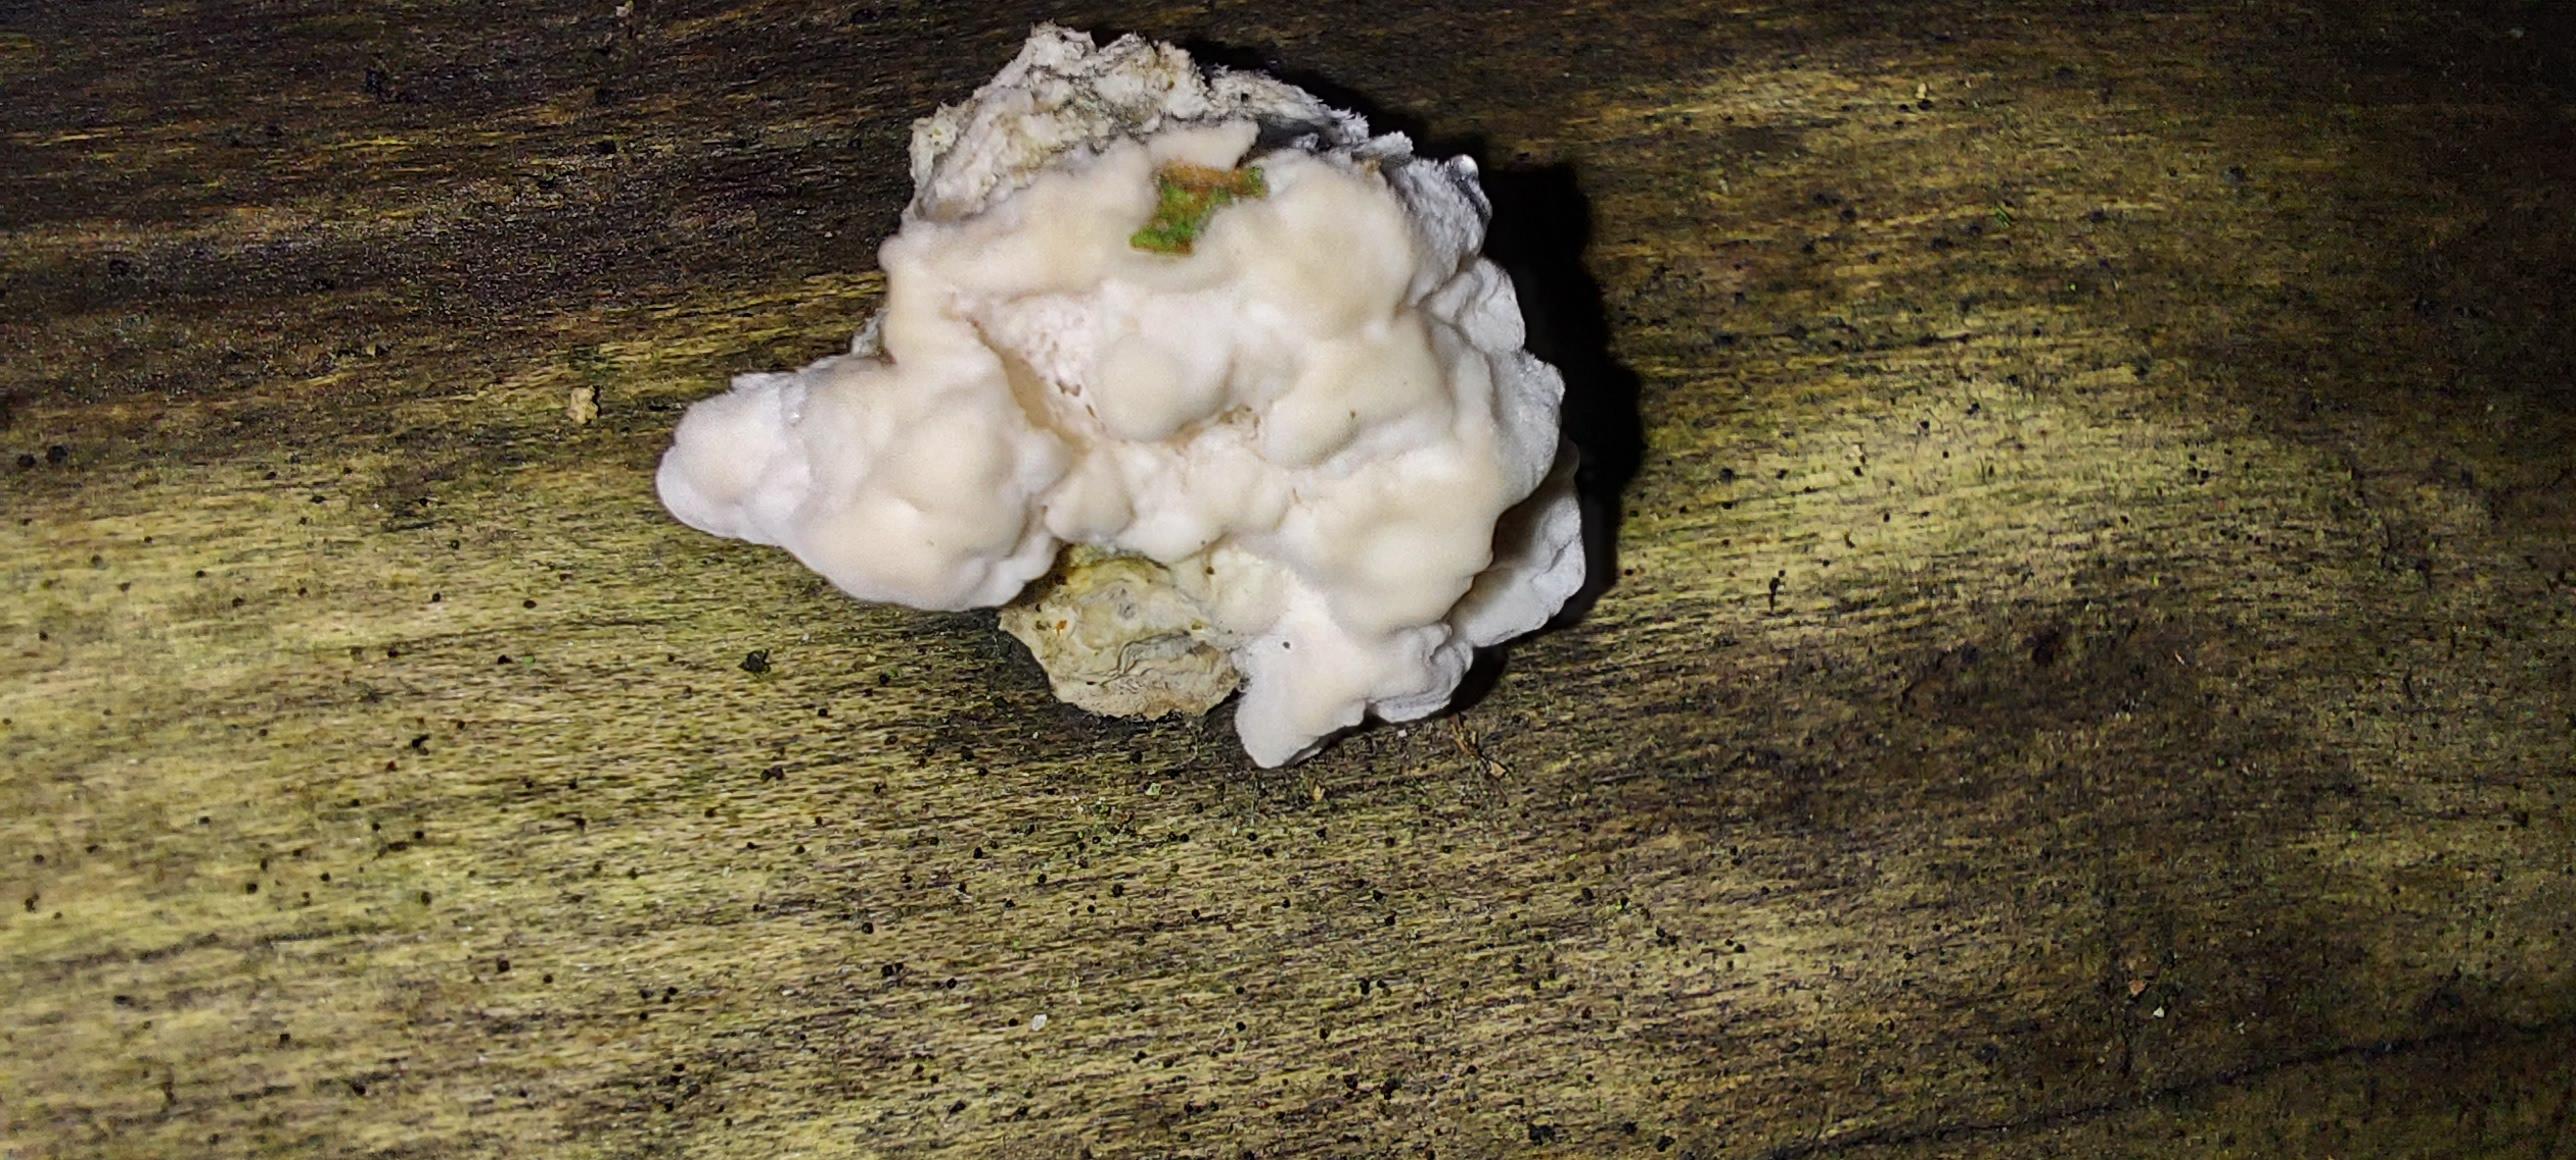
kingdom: Fungi
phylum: Basidiomycota
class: Agaricomycetes
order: Polyporales
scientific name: Polyporales
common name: poresvampordenen
